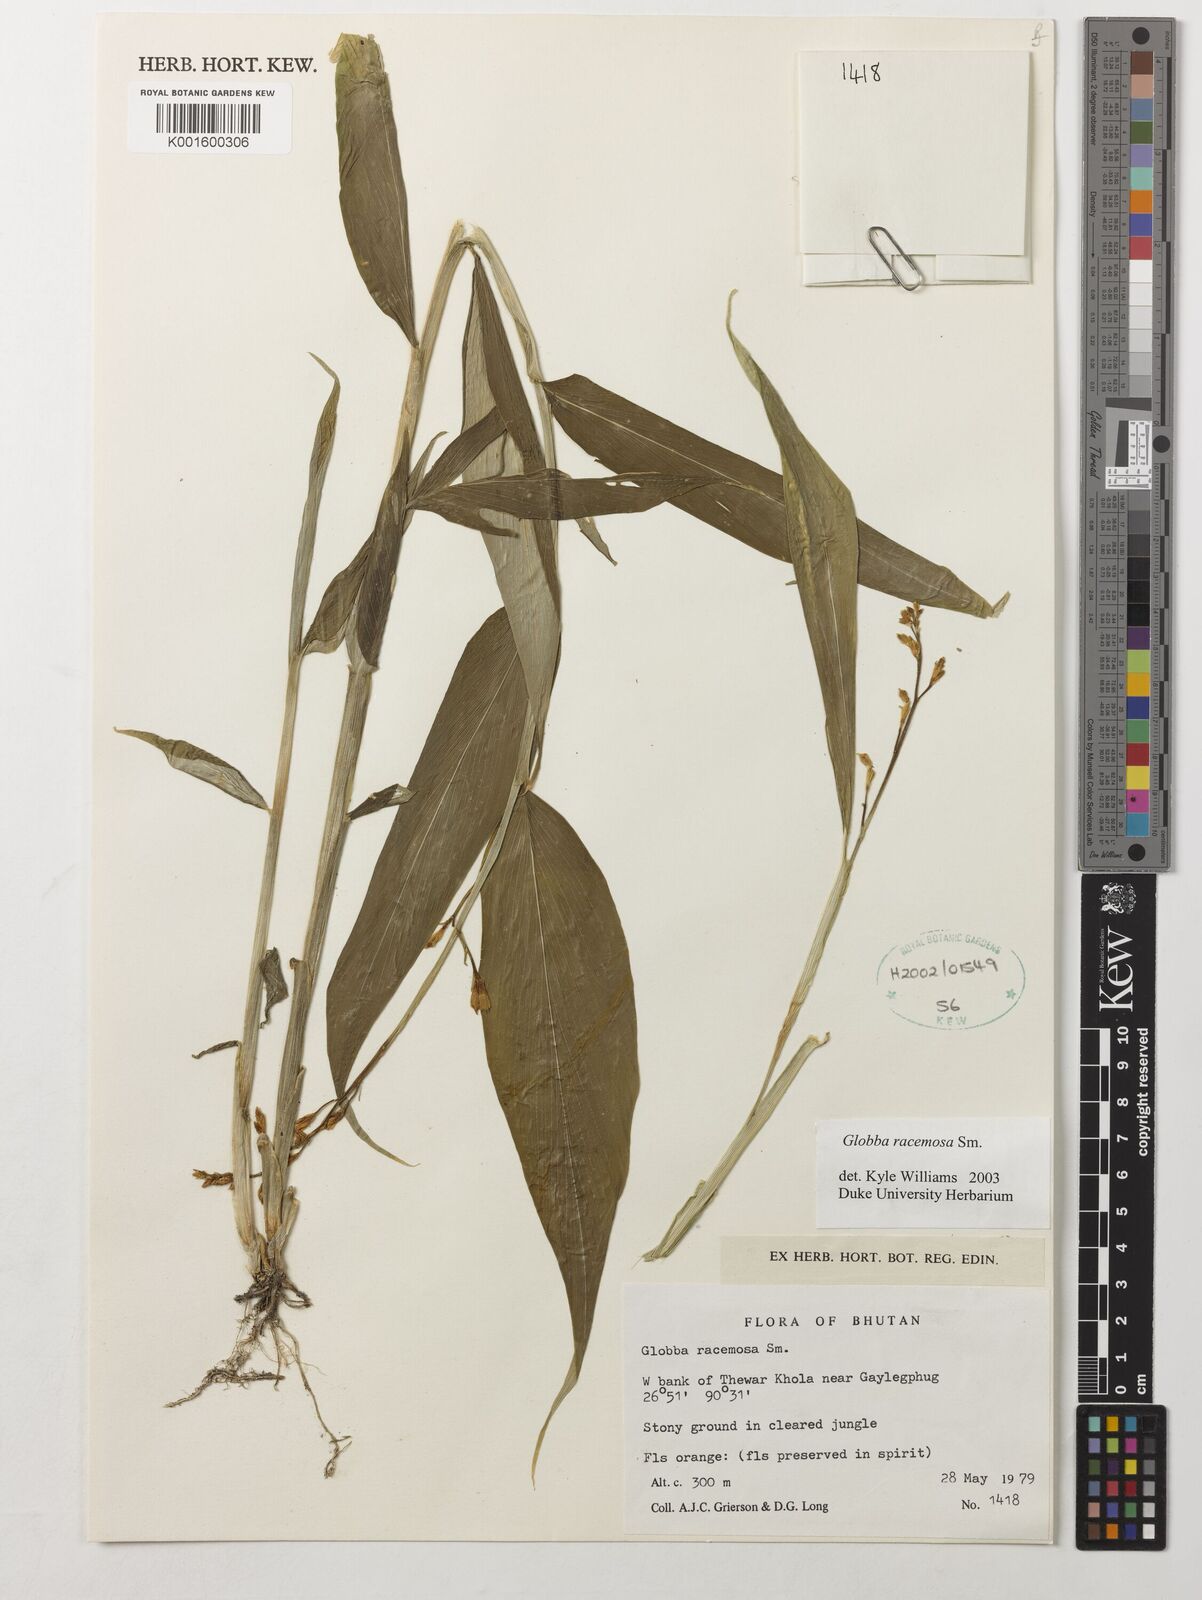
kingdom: Plantae
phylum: Tracheophyta
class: Liliopsida
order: Zingiberales
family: Zingiberaceae
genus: Globba
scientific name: Globba racemosa
